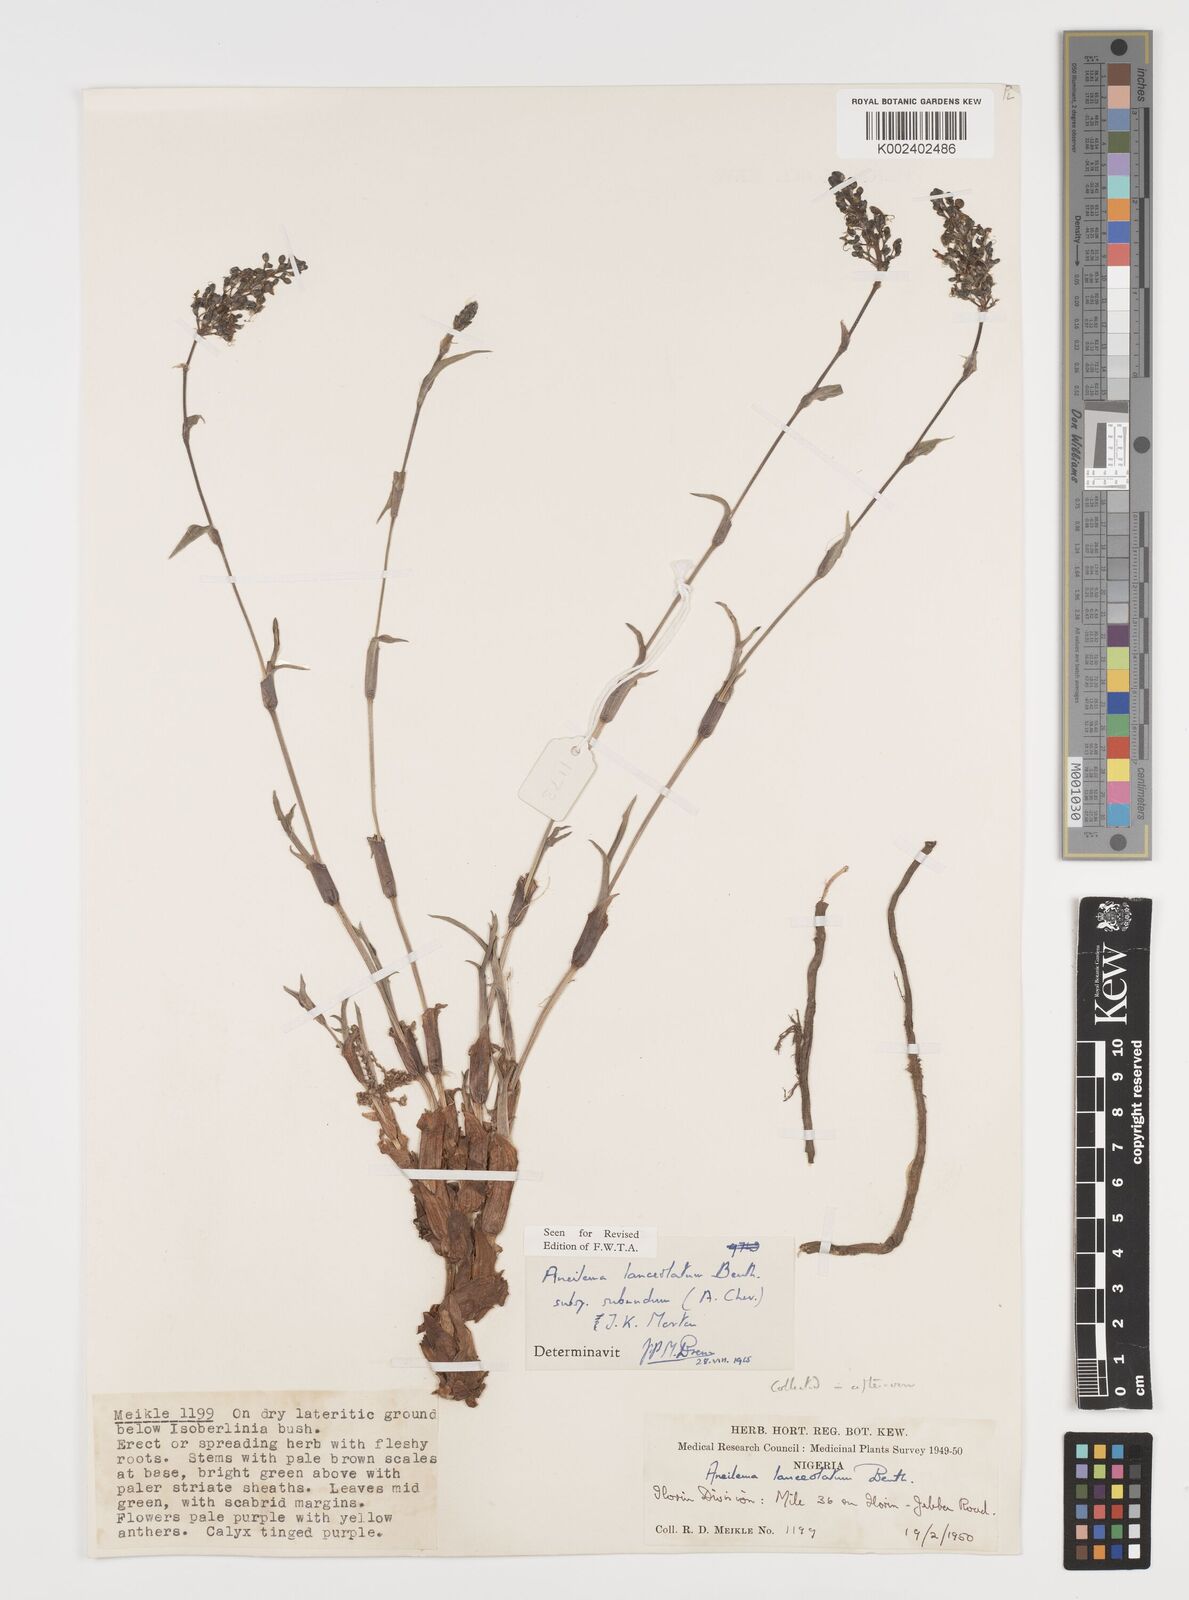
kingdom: Plantae
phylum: Tracheophyta
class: Liliopsida
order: Commelinales
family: Commelinaceae
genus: Aneilema
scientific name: Aneilema lanceolatum
